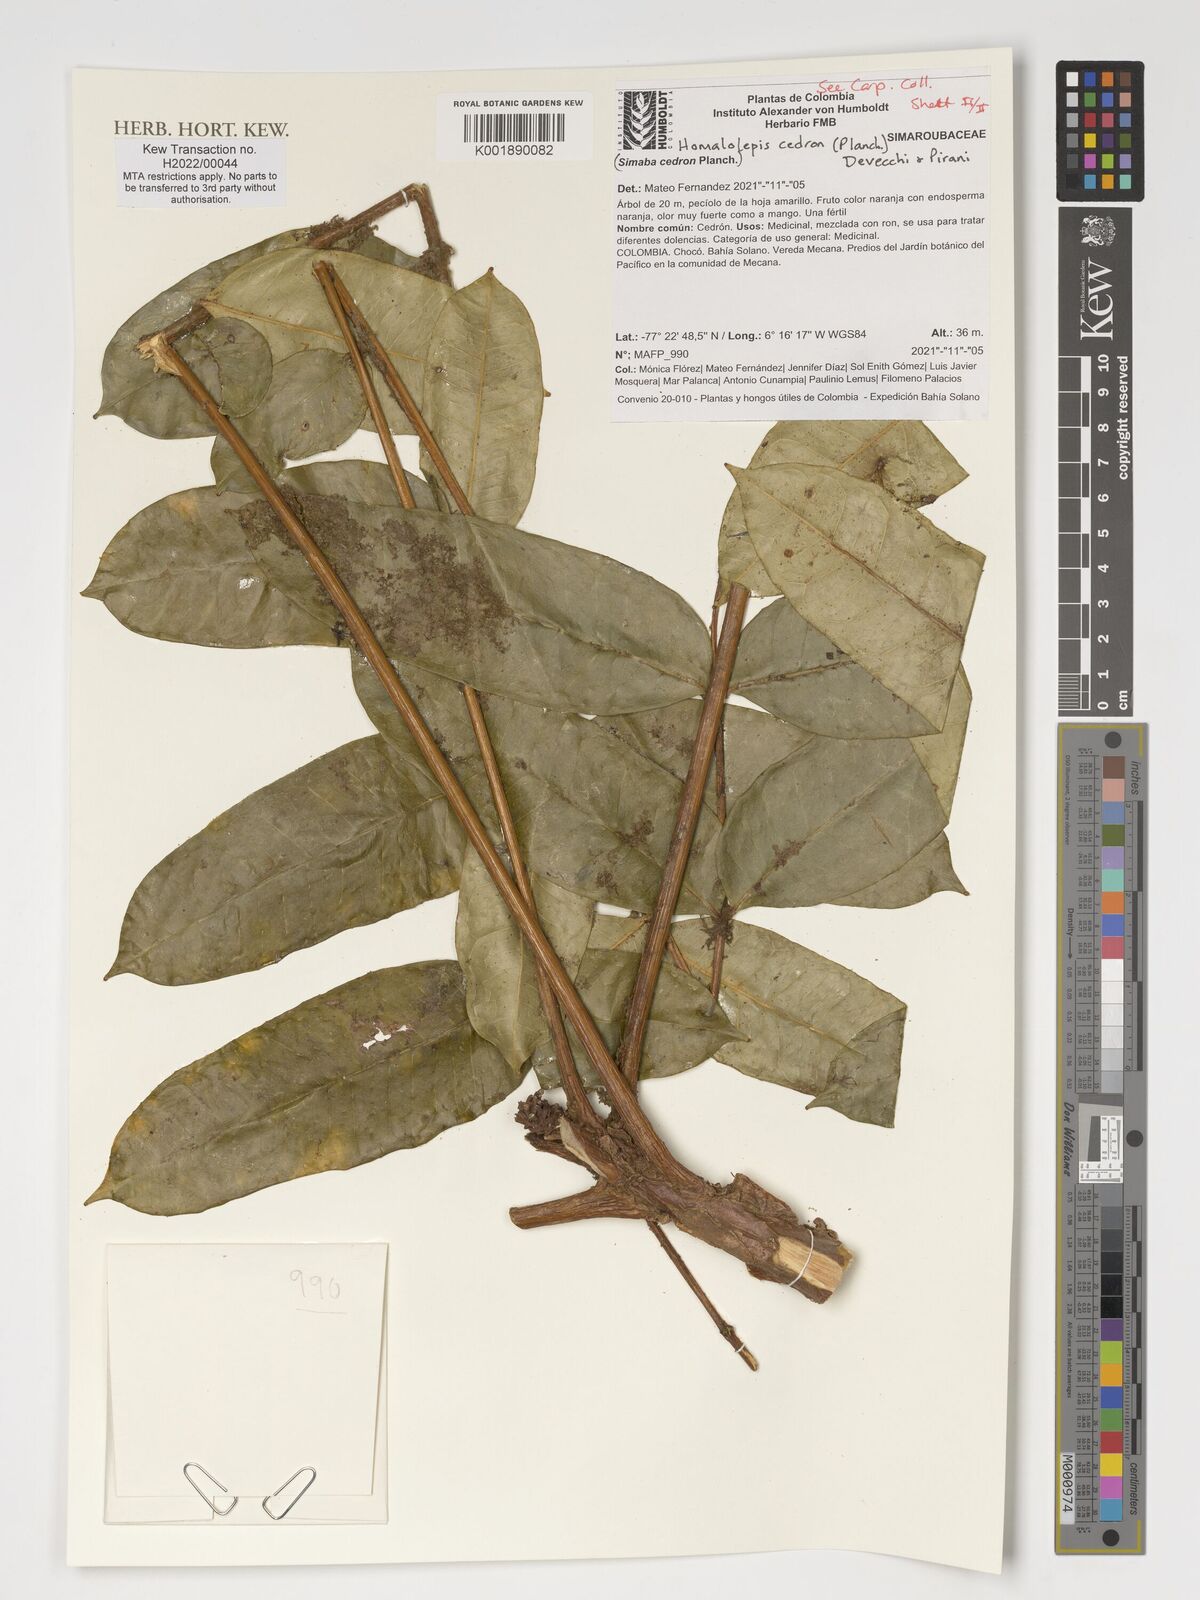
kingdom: Plantae
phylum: Tracheophyta
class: Magnoliopsida
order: Sapindales
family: Simaroubaceae
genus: Homalolepis
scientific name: Homalolepis cedron
